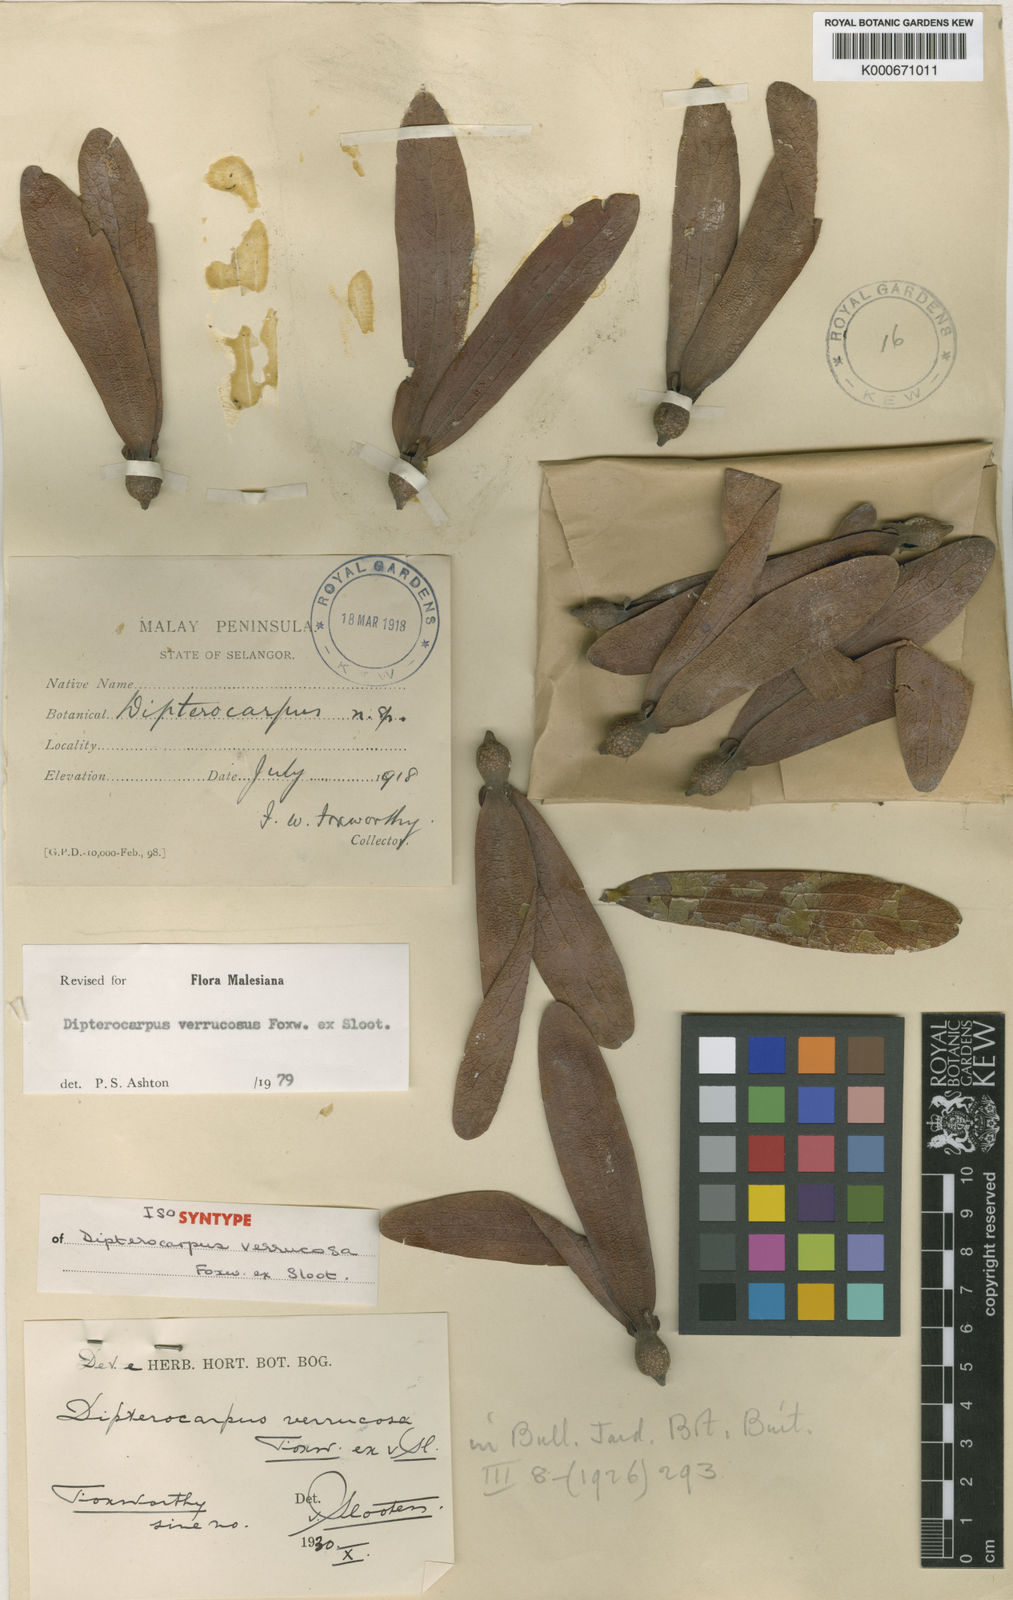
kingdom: Plantae
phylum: Tracheophyta
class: Magnoliopsida
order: Malvales
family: Dipterocarpaceae
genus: Dipterocarpus
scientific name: Dipterocarpus verrucosus
